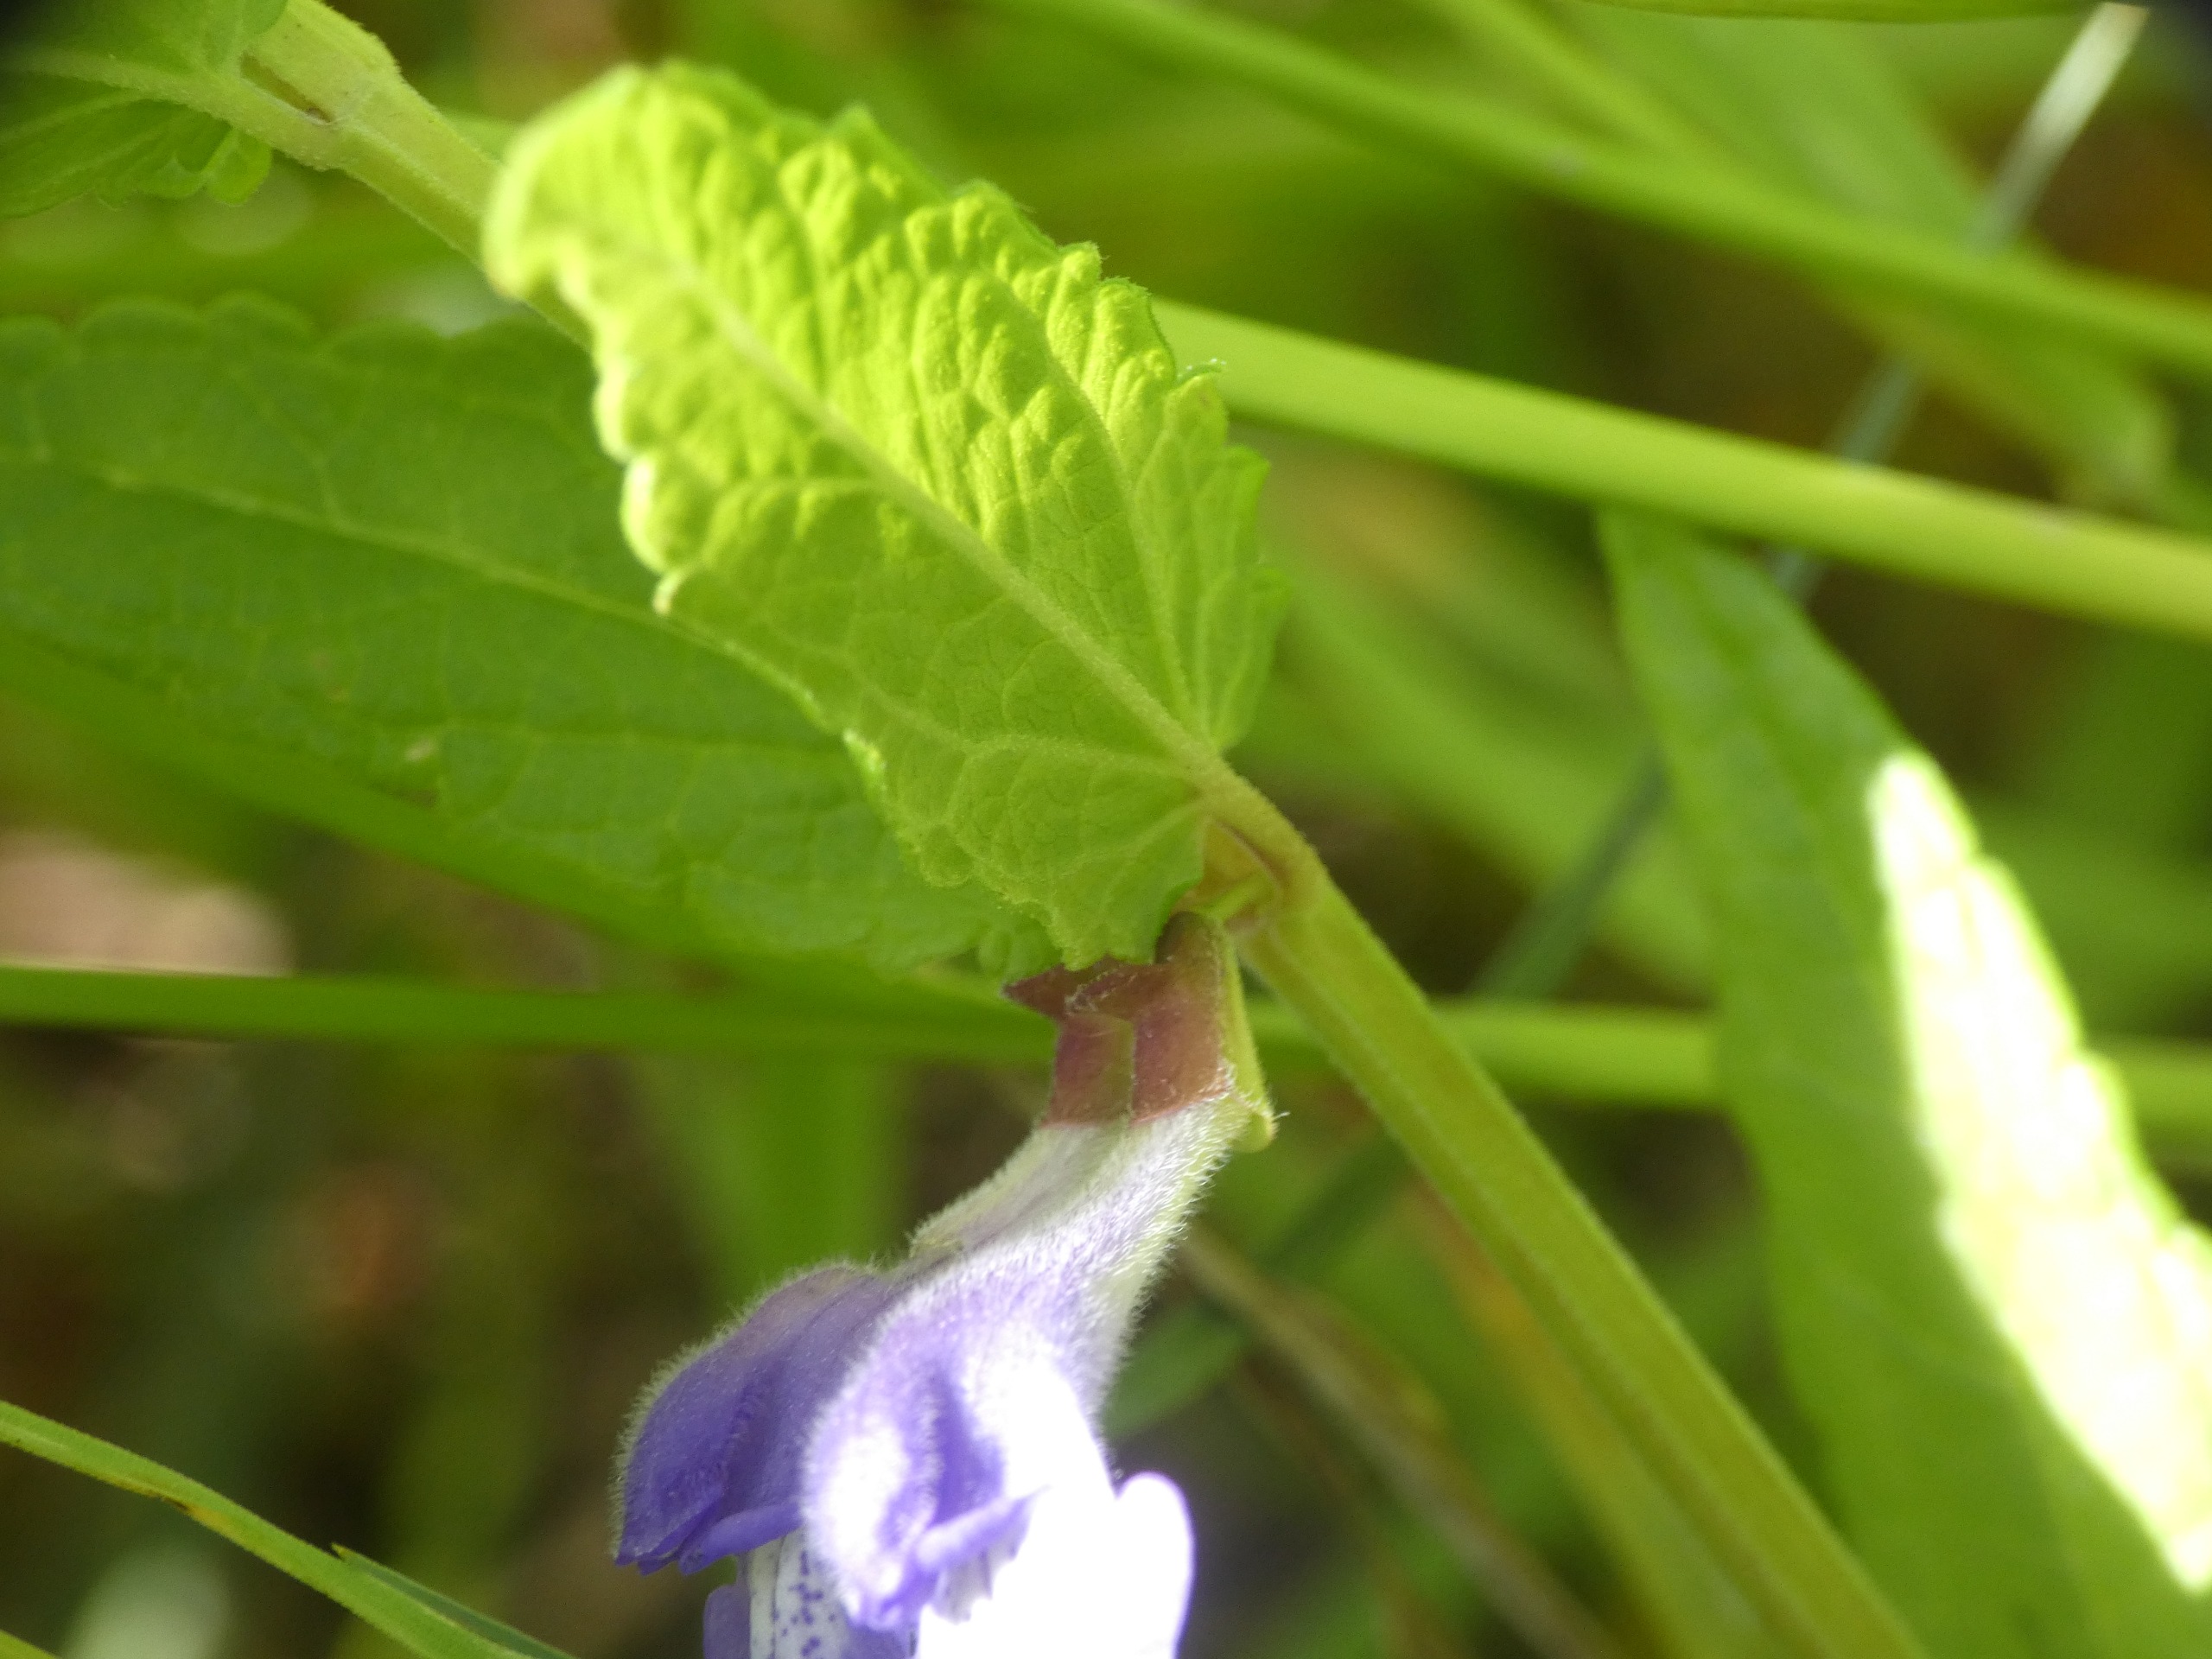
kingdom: Plantae
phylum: Tracheophyta
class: Magnoliopsida
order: Lamiales
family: Lamiaceae
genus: Scutellaria
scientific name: Scutellaria galericulata
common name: Almindelig skjolddrager
